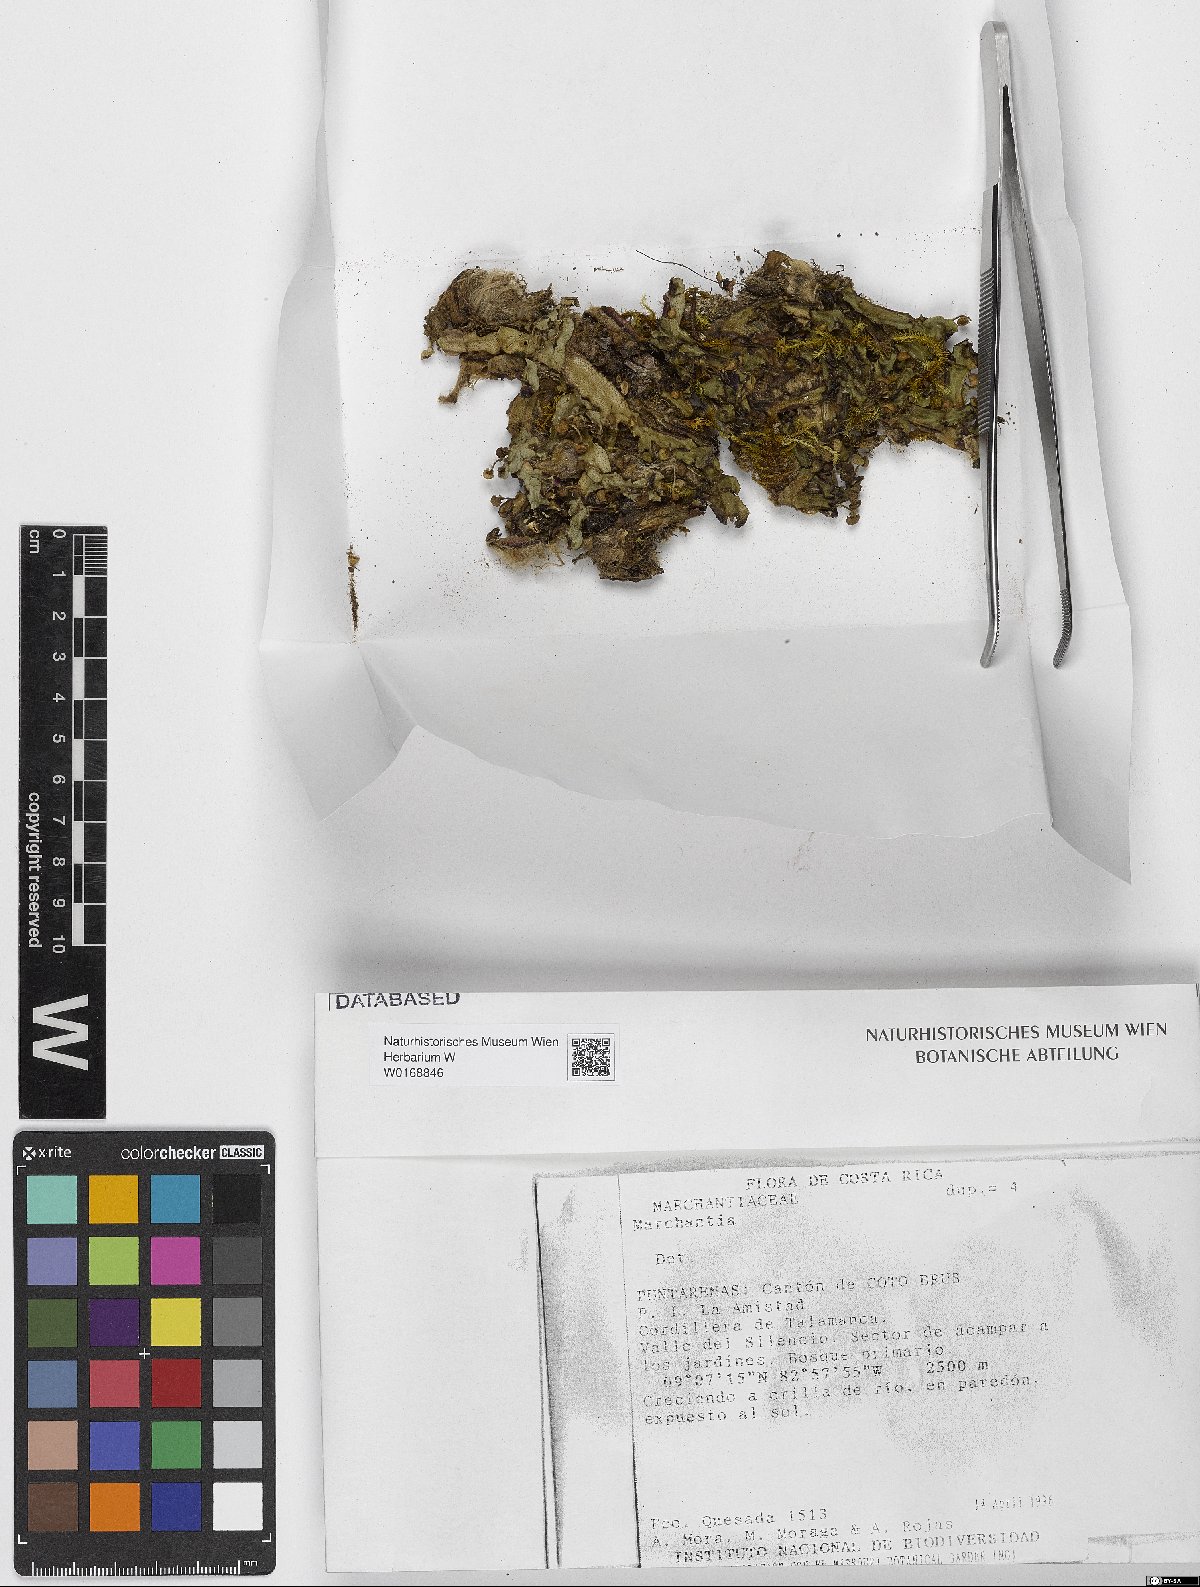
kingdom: Plantae
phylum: Marchantiophyta
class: Marchantiopsida
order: Marchantiales
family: Marchantiaceae
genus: Marchantia
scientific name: Marchantia
